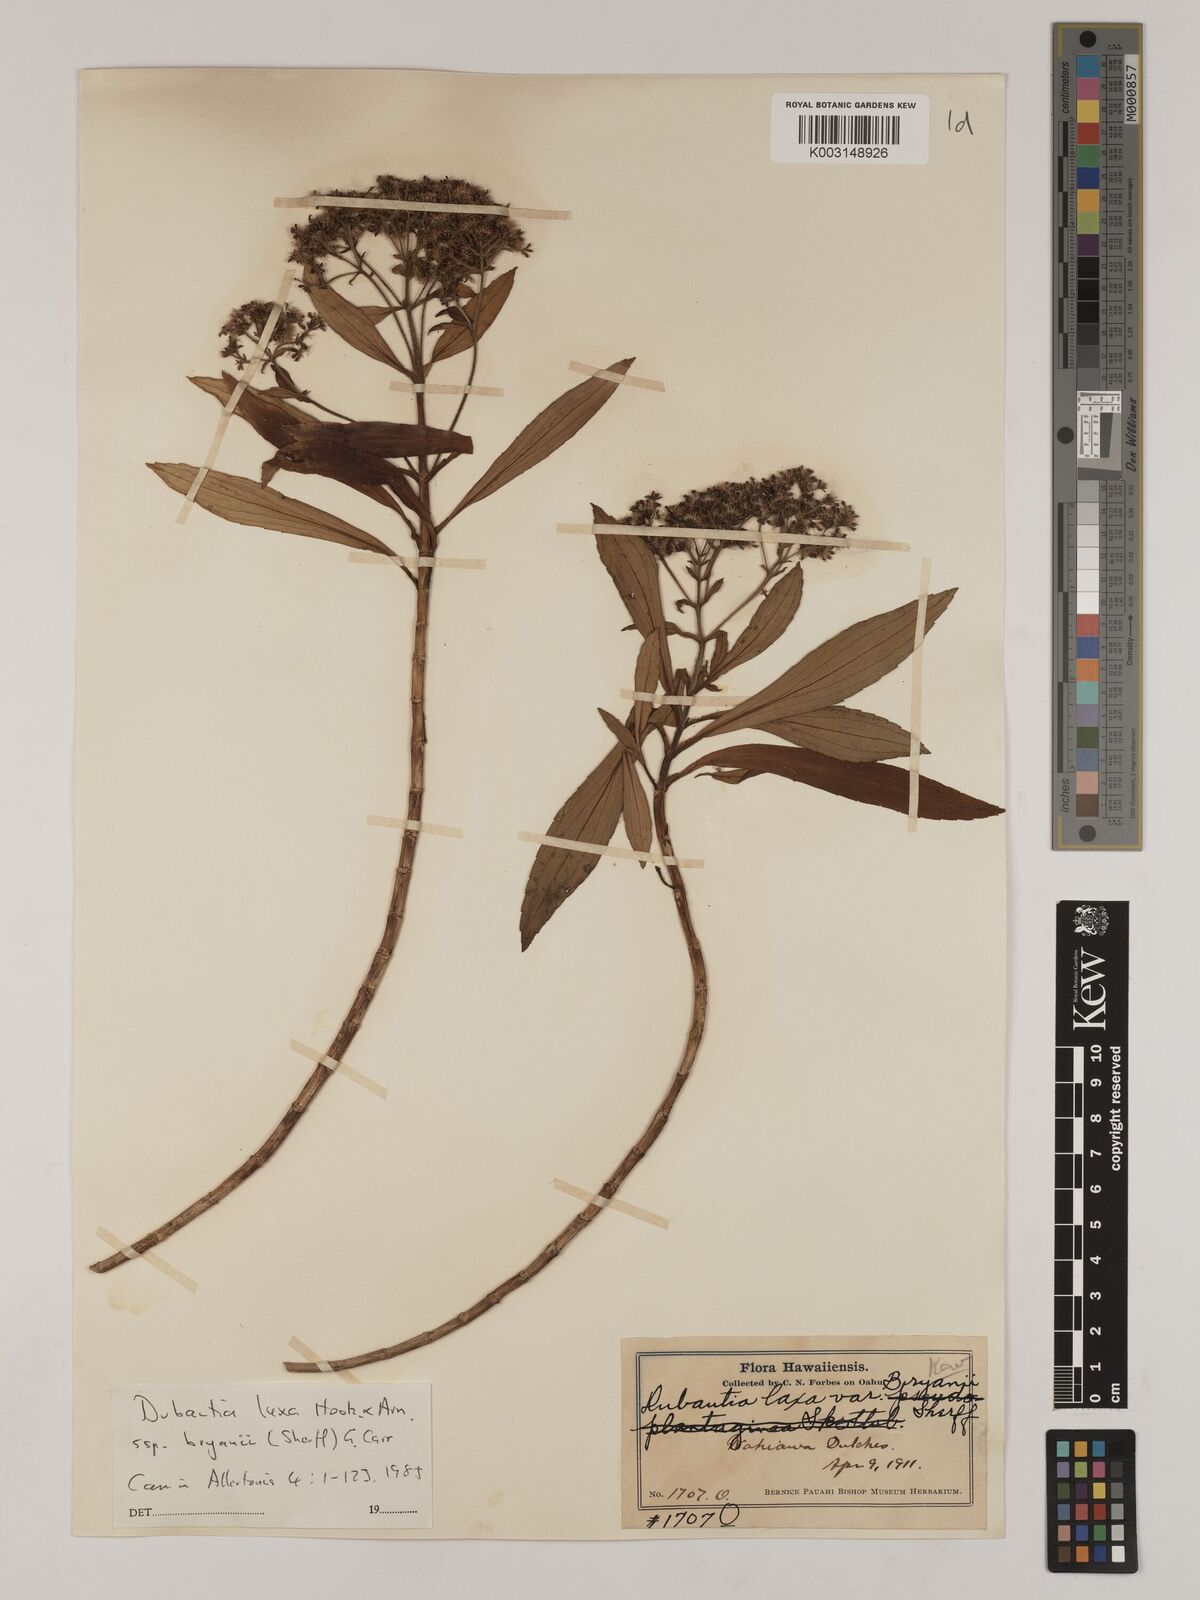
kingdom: Plantae
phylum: Tracheophyta
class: Magnoliopsida
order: Asterales
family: Asteraceae
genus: Dubautia
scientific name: Dubautia laxa
